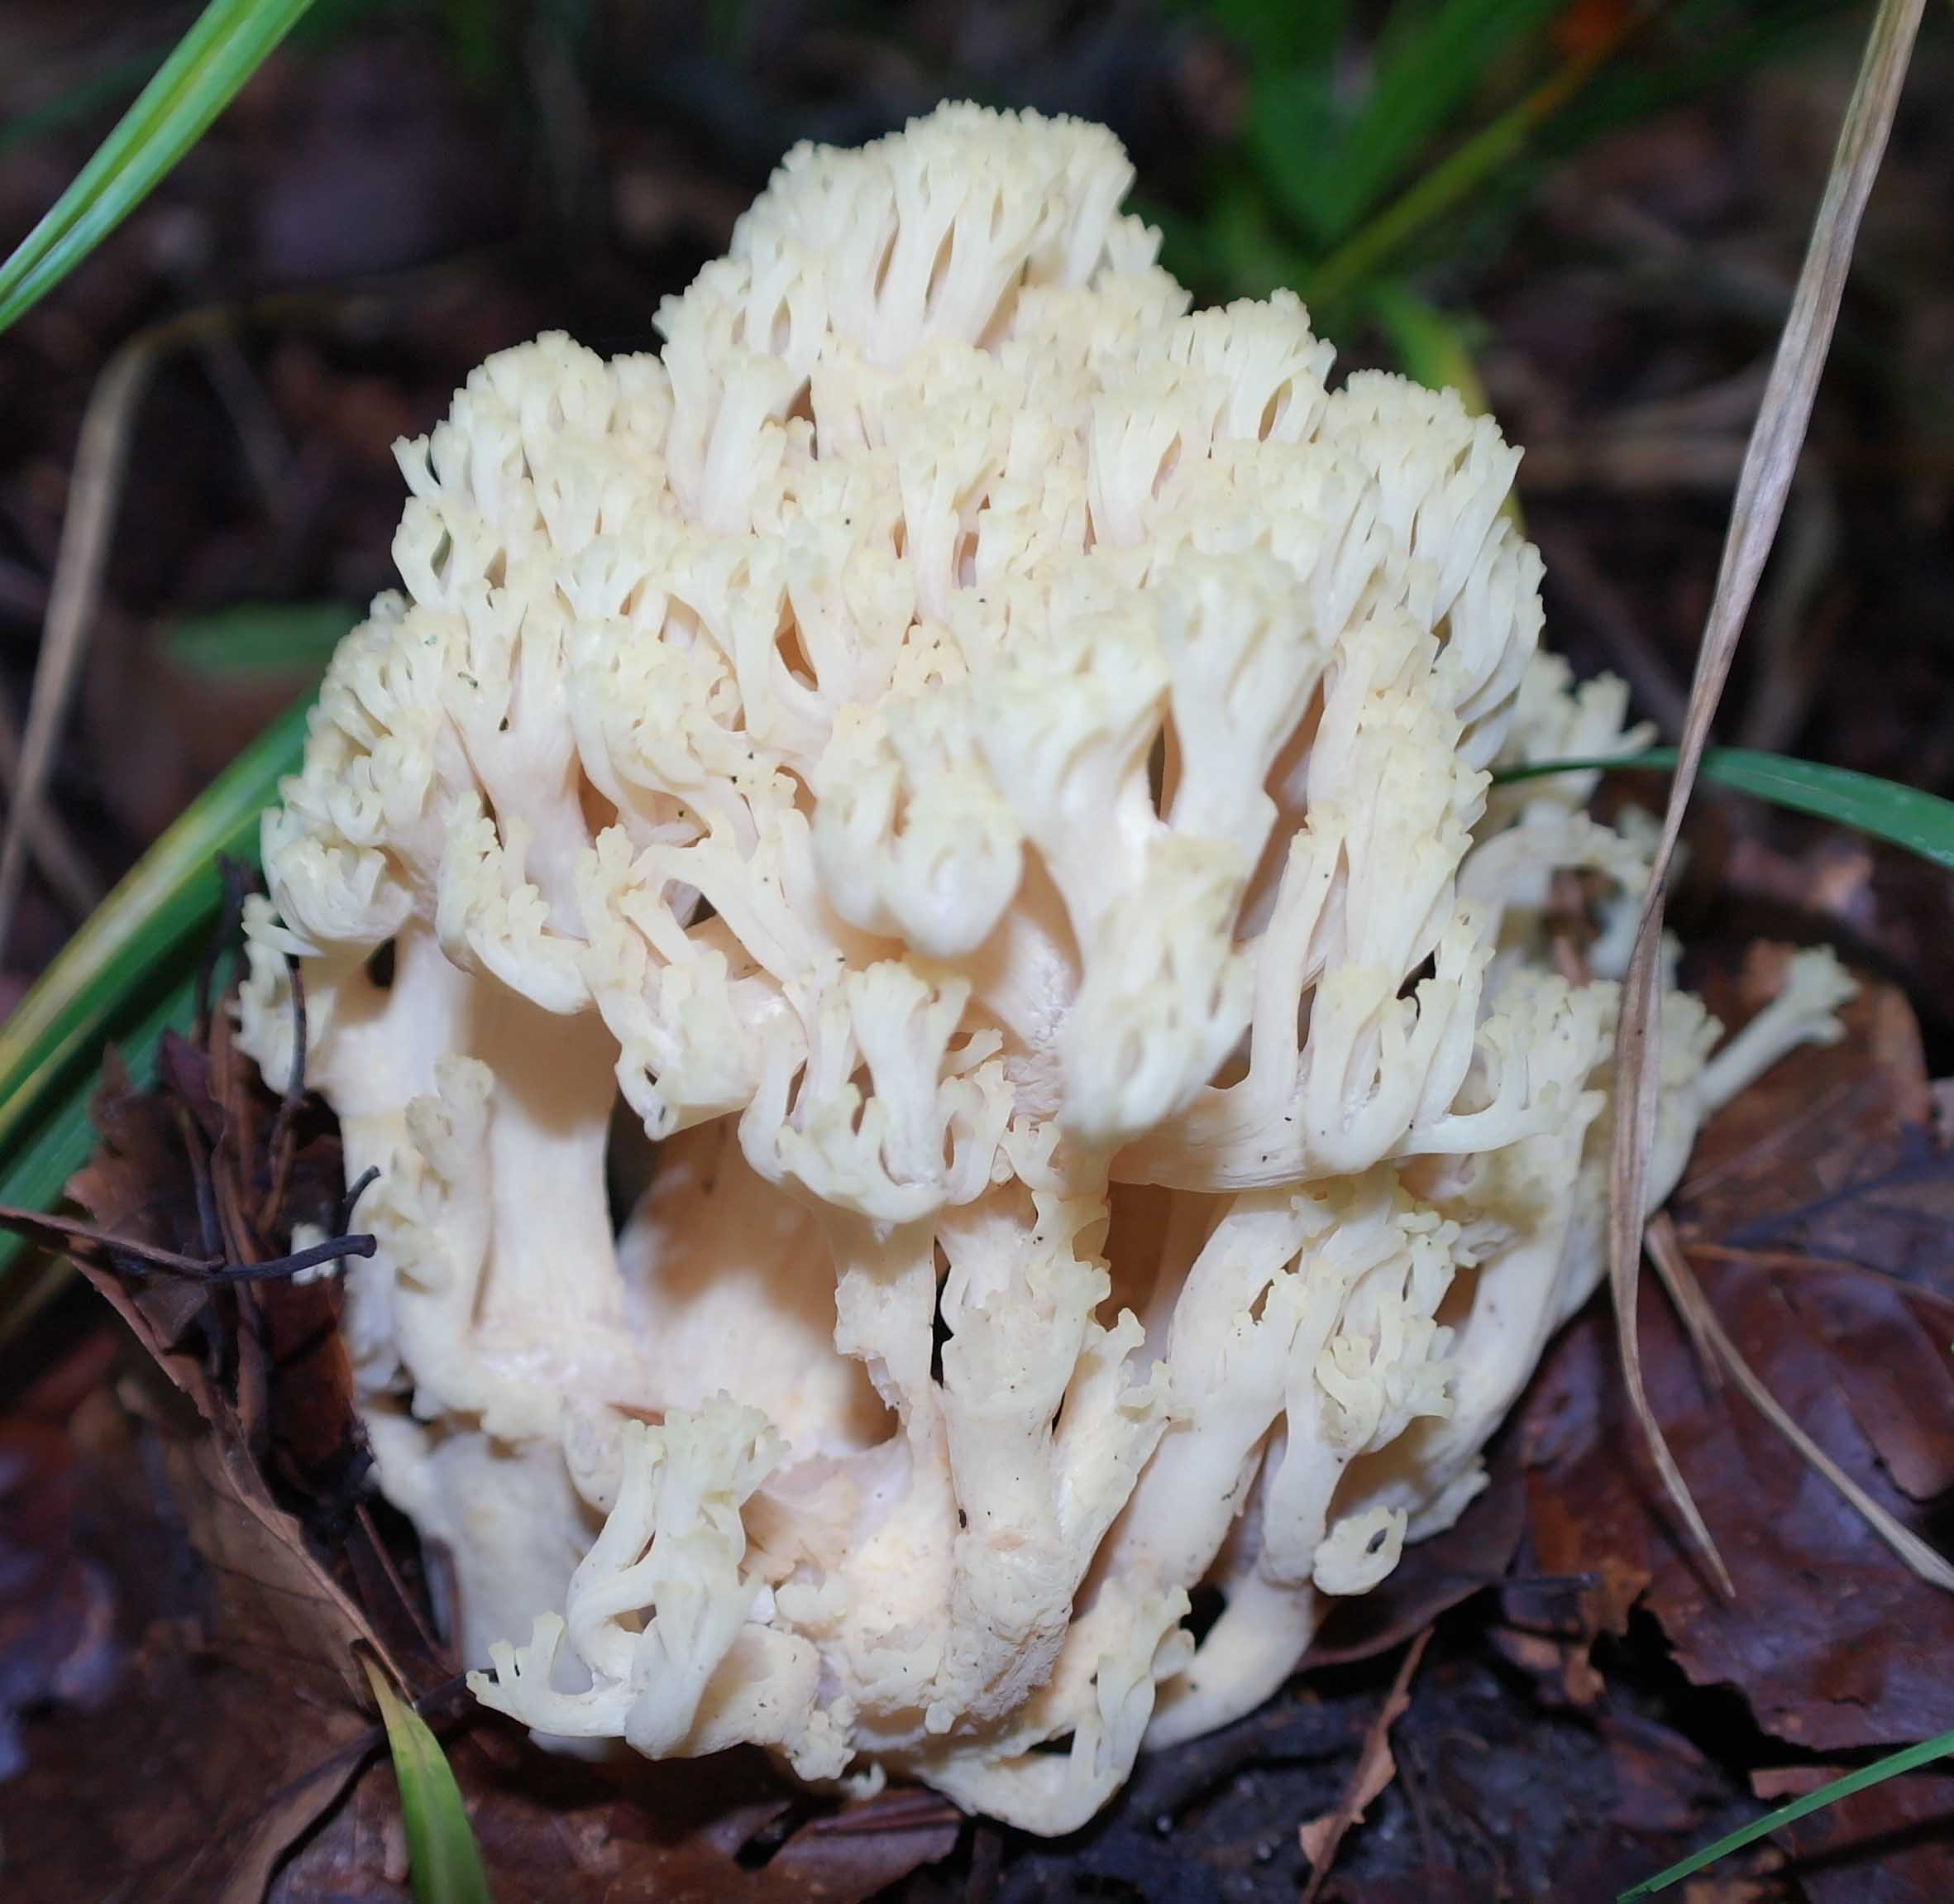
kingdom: Fungi
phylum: Basidiomycota
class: Agaricomycetes
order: Gomphales
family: Gomphaceae
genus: Ramaria
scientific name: Ramaria sanguinea
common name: blodplettet koralsvamp
